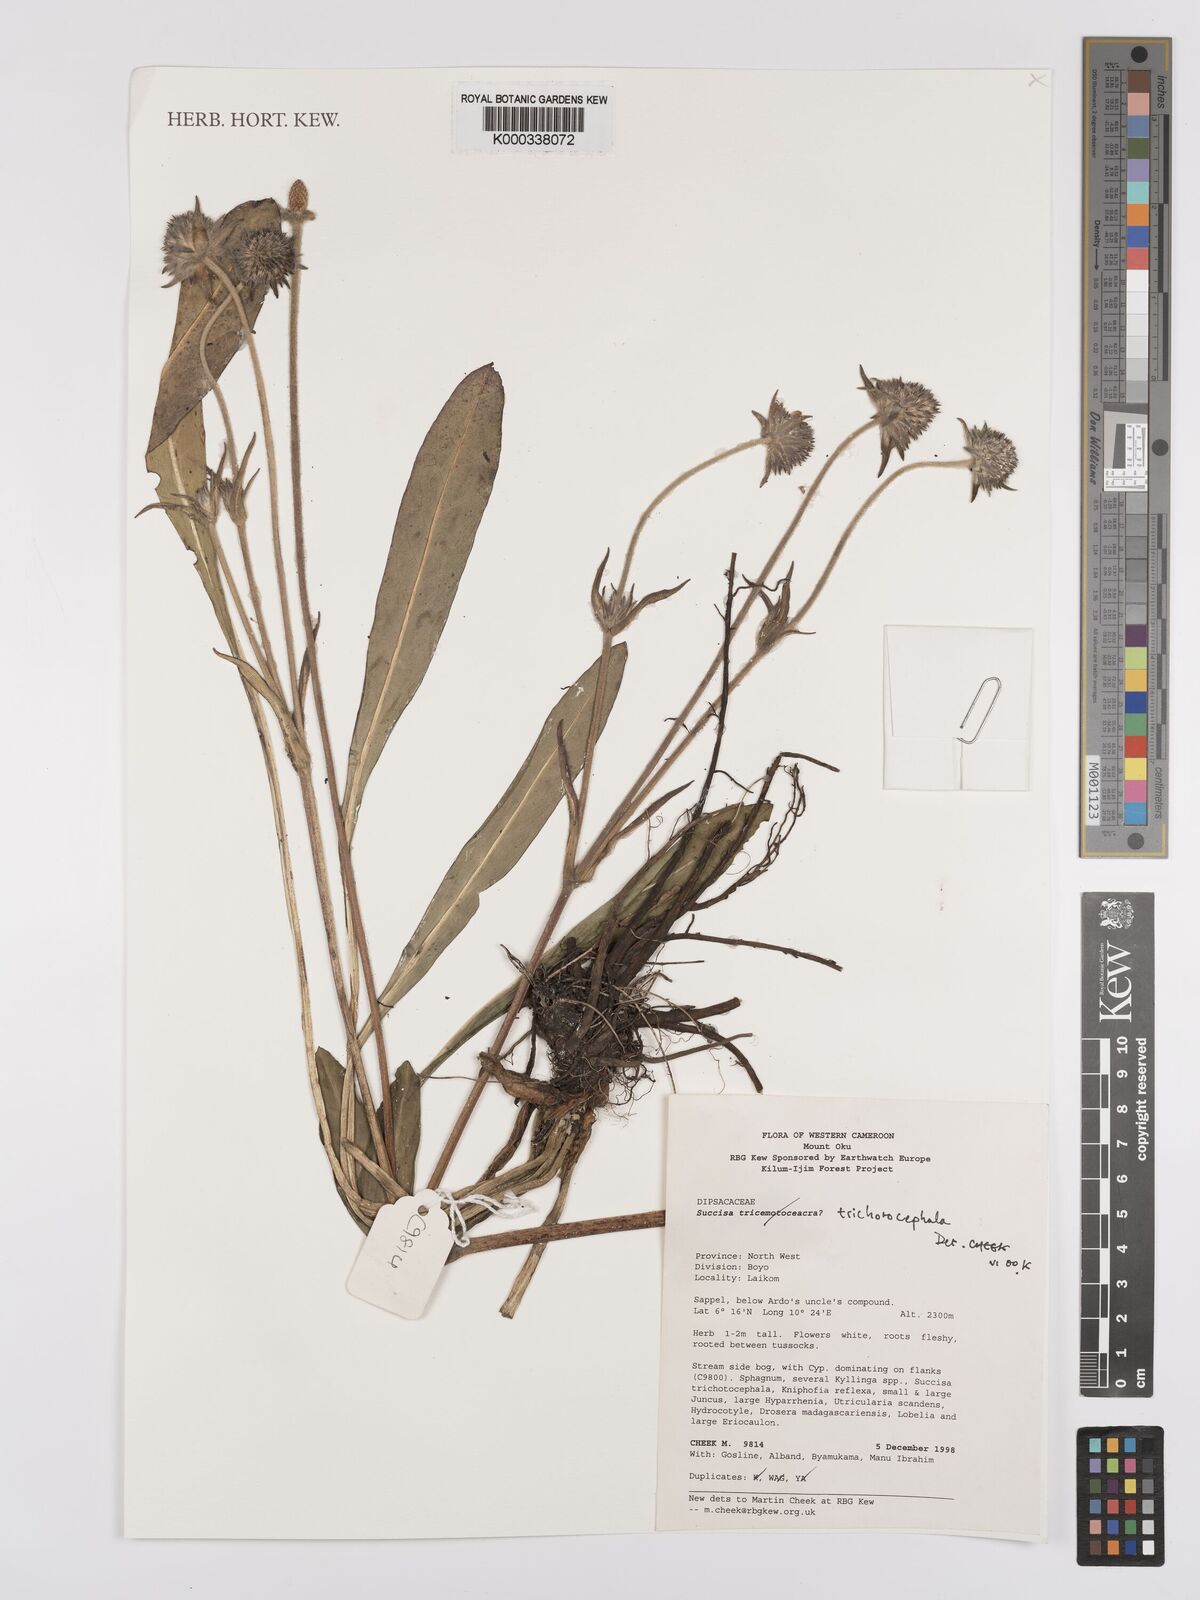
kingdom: Plantae
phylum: Tracheophyta
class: Magnoliopsida
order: Dipsacales
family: Caprifoliaceae
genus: Succisa
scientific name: Succisa trichotocephala
